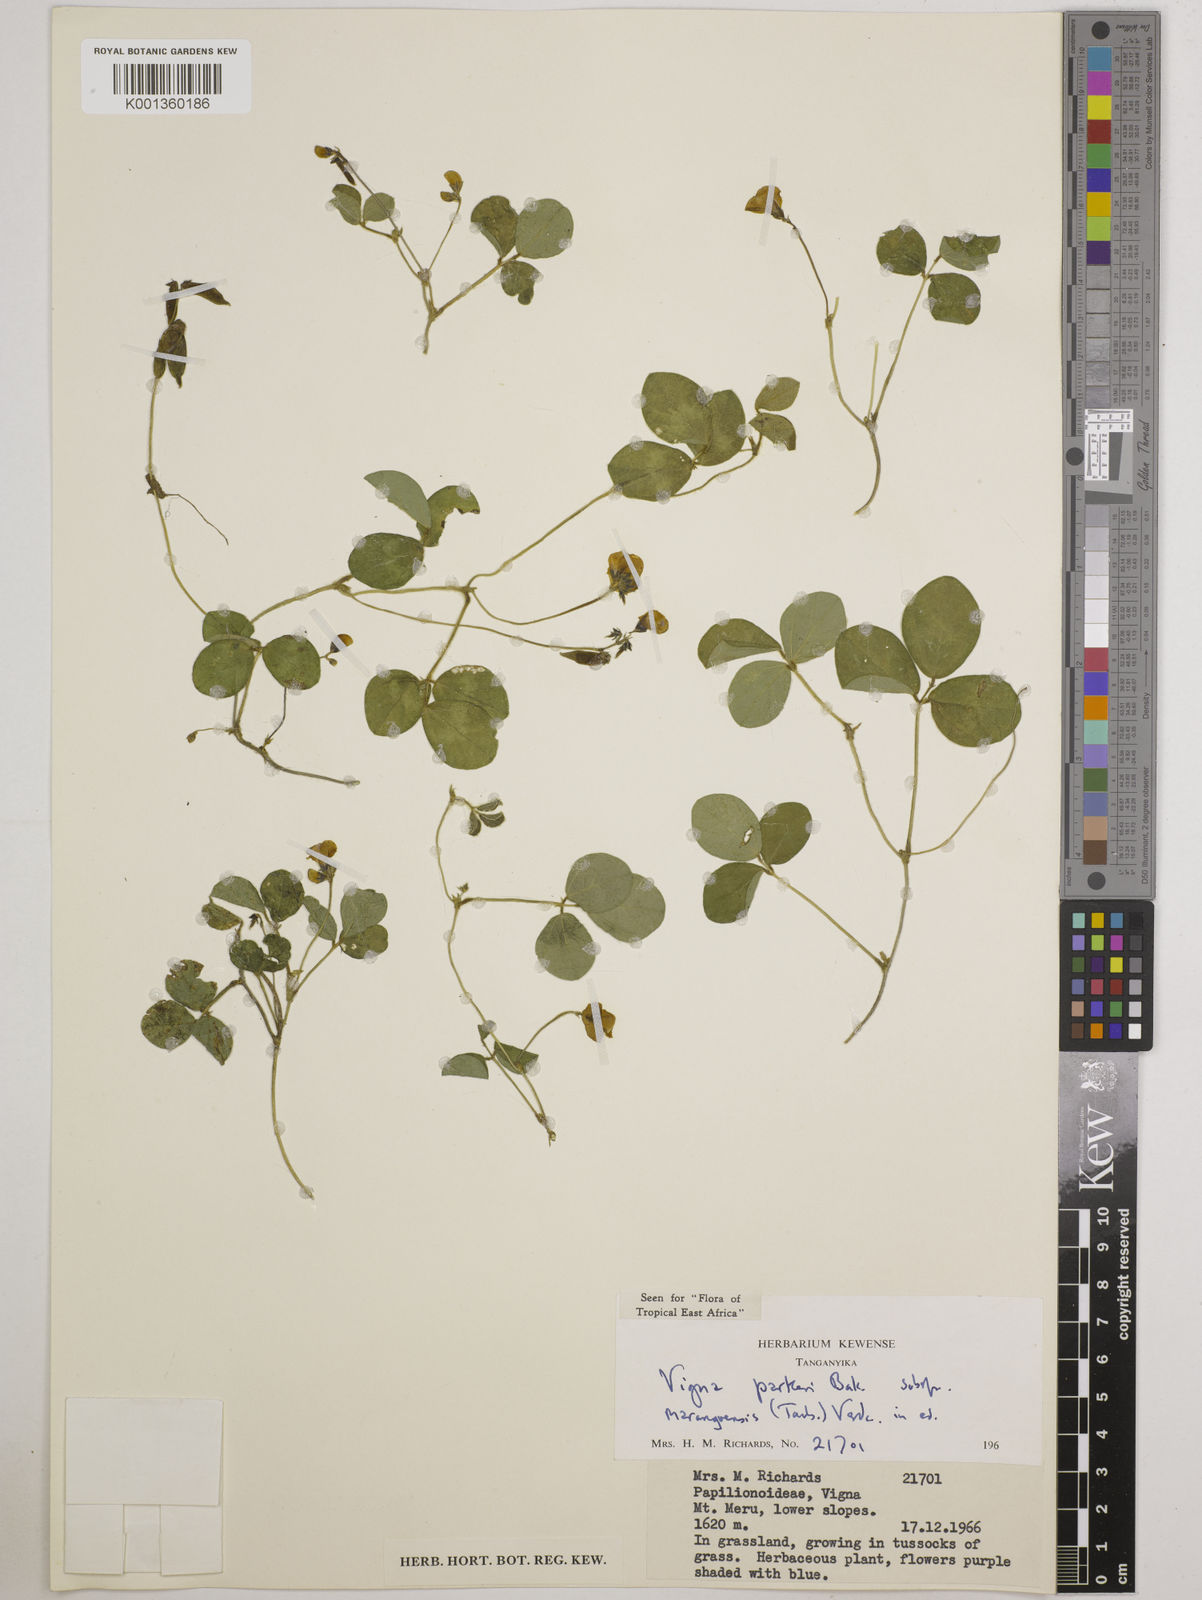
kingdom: Plantae
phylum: Tracheophyta
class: Magnoliopsida
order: Fabales
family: Fabaceae
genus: Vigna
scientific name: Vigna
